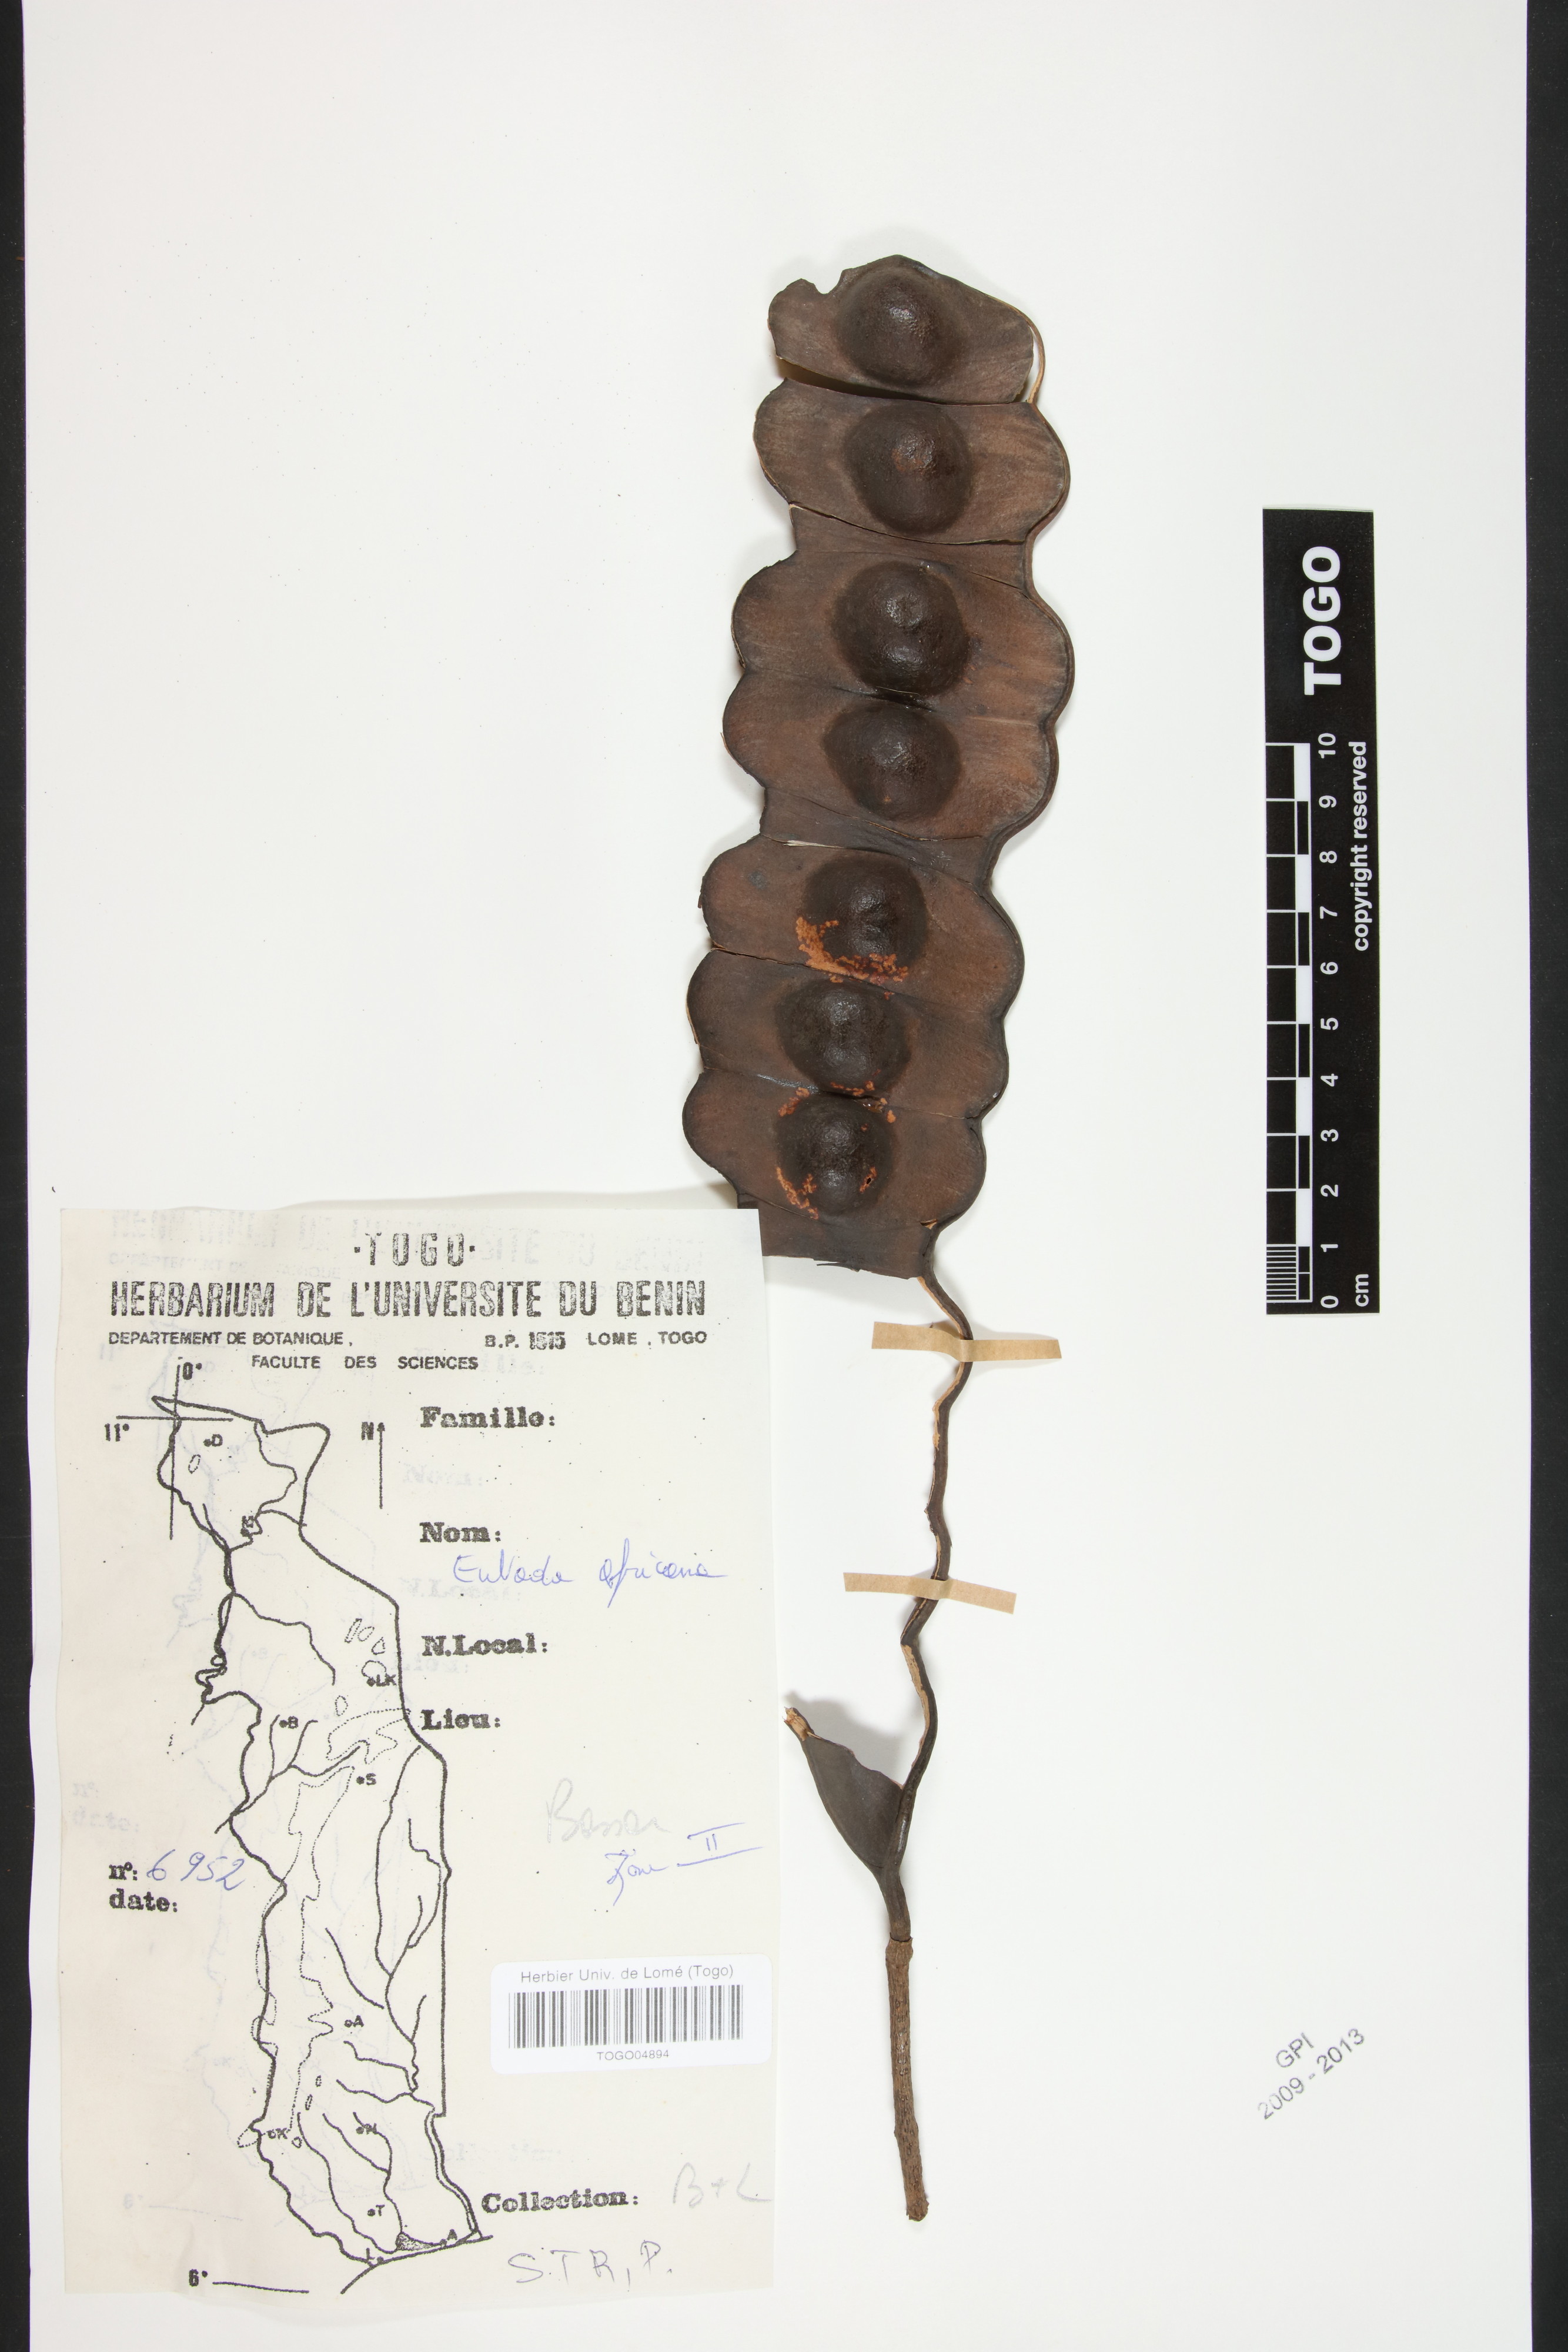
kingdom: Plantae
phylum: Tracheophyta
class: Magnoliopsida
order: Fabales
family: Fabaceae
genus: Entada
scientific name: Entada africana
